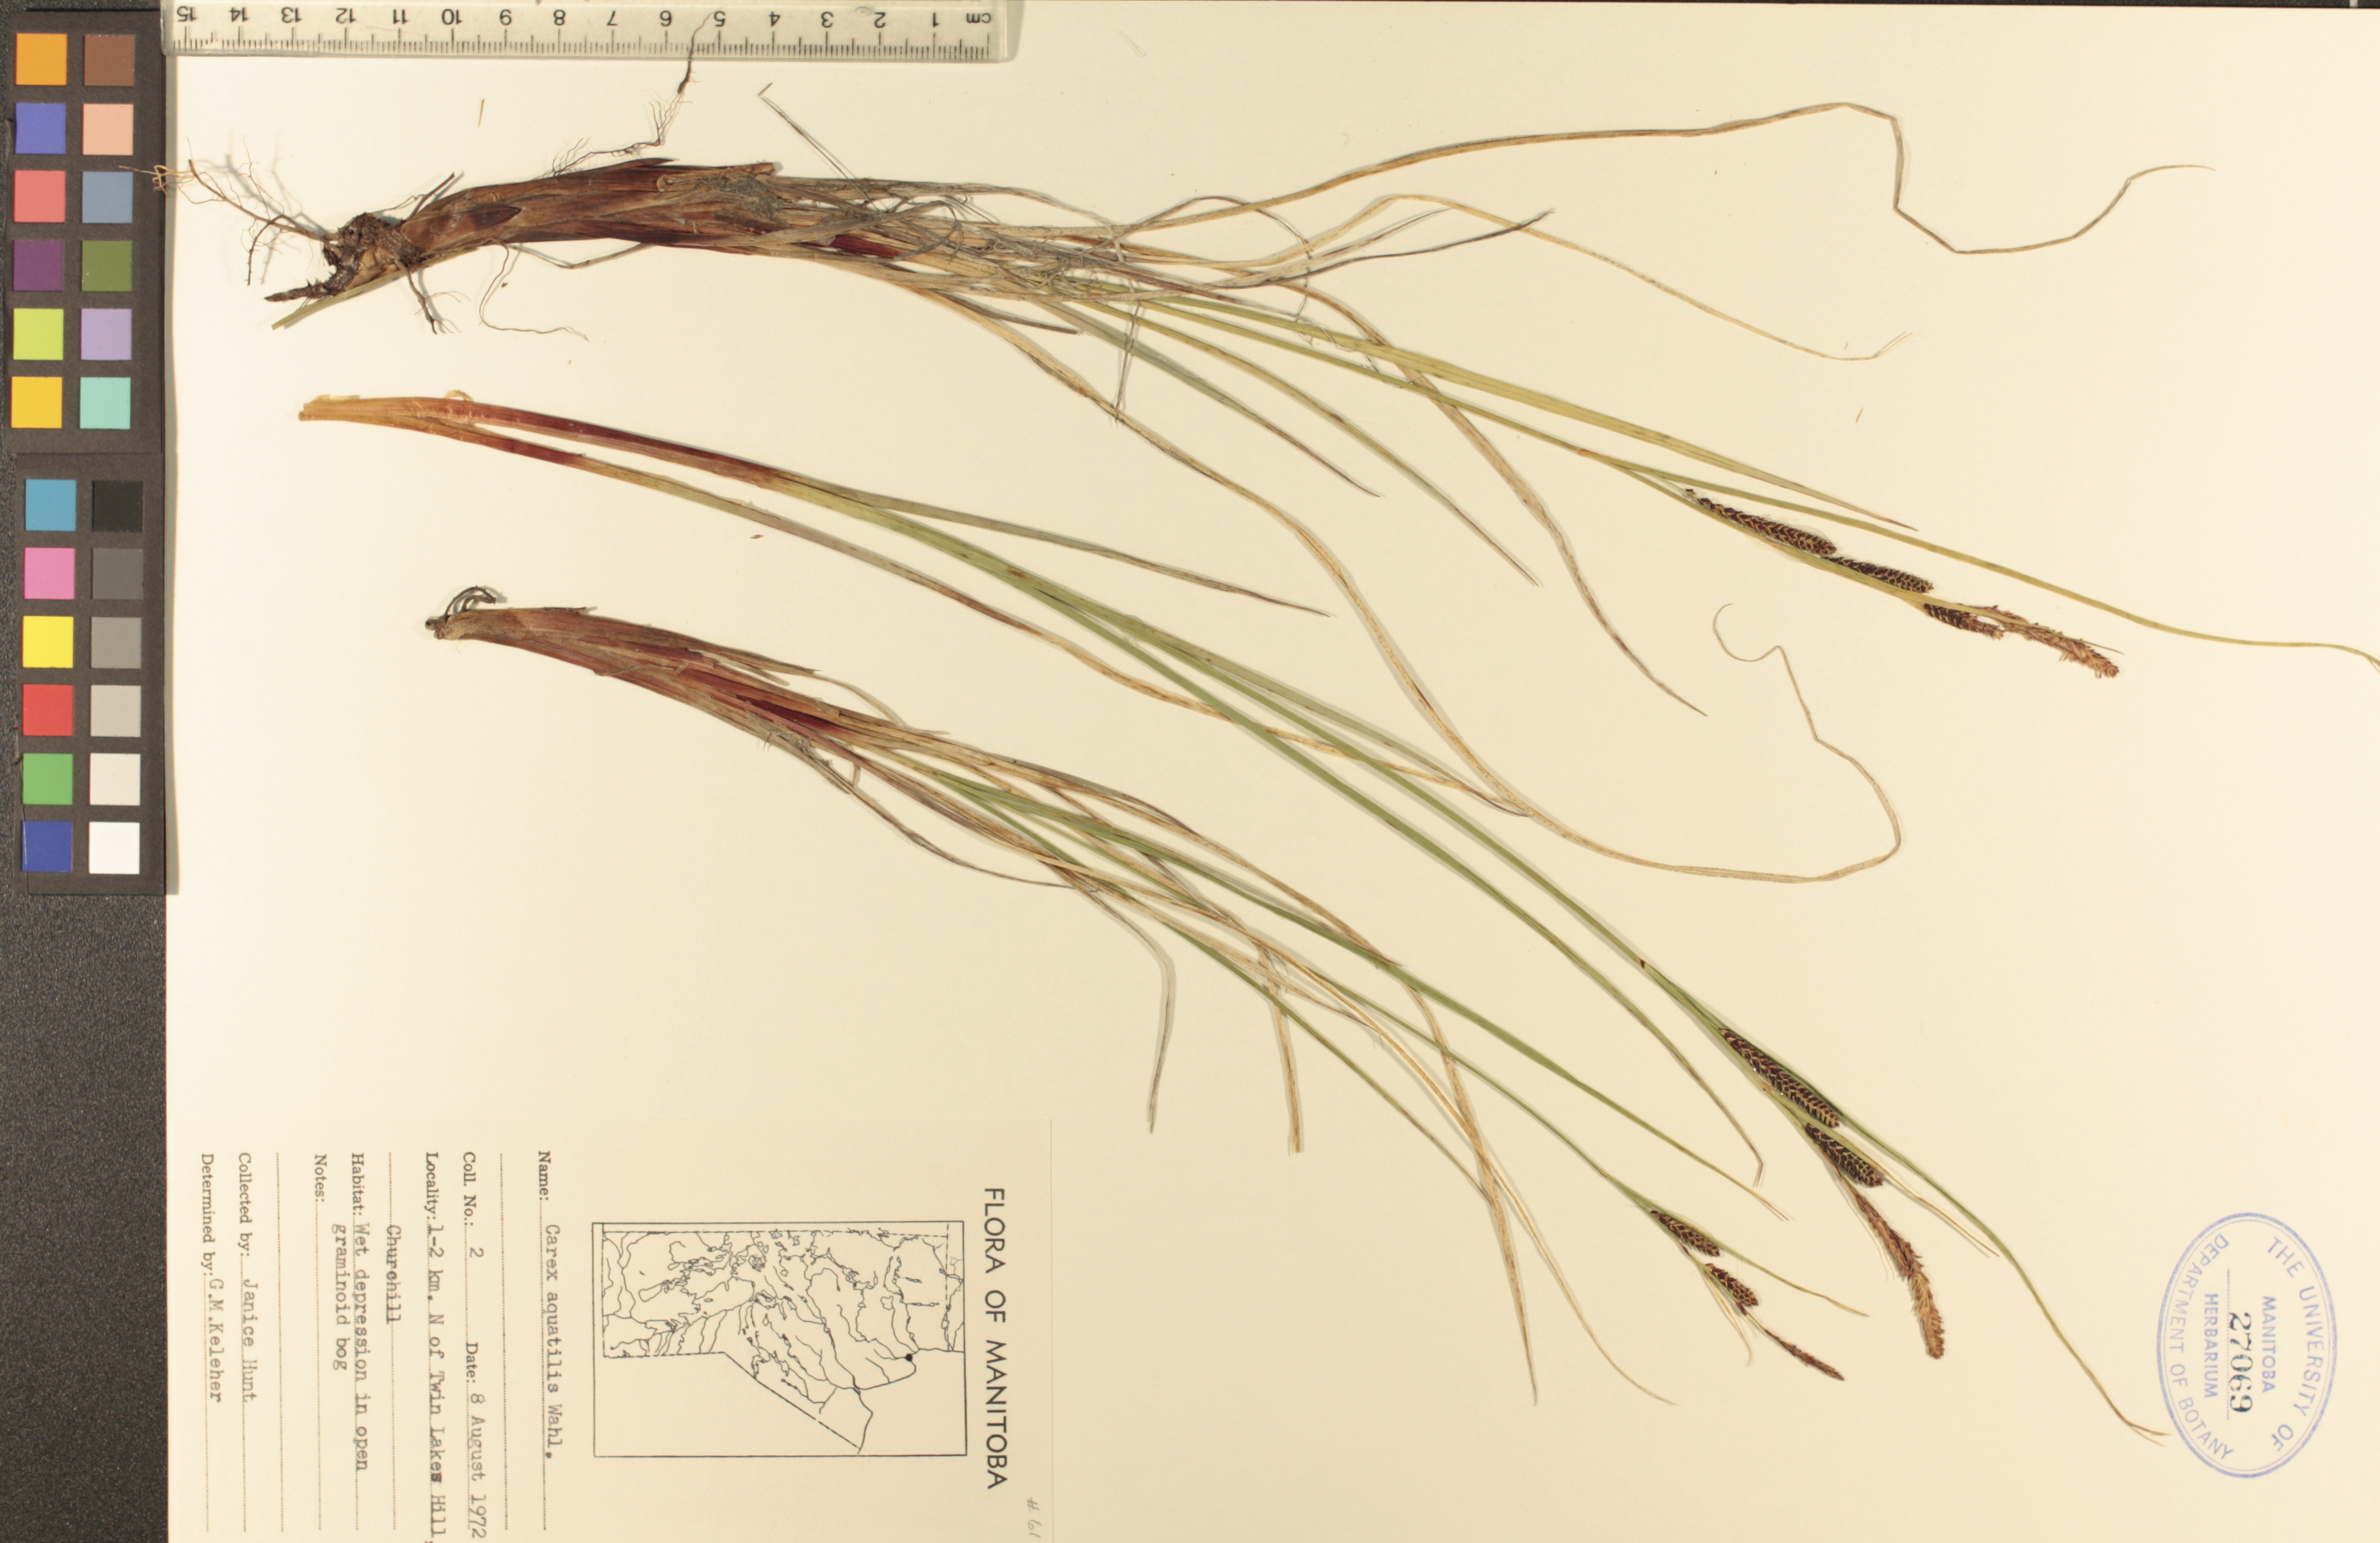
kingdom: Plantae
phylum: Tracheophyta
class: Liliopsida
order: Poales
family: Cyperaceae
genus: Carex
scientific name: Carex aquatilis
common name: Water sedge
